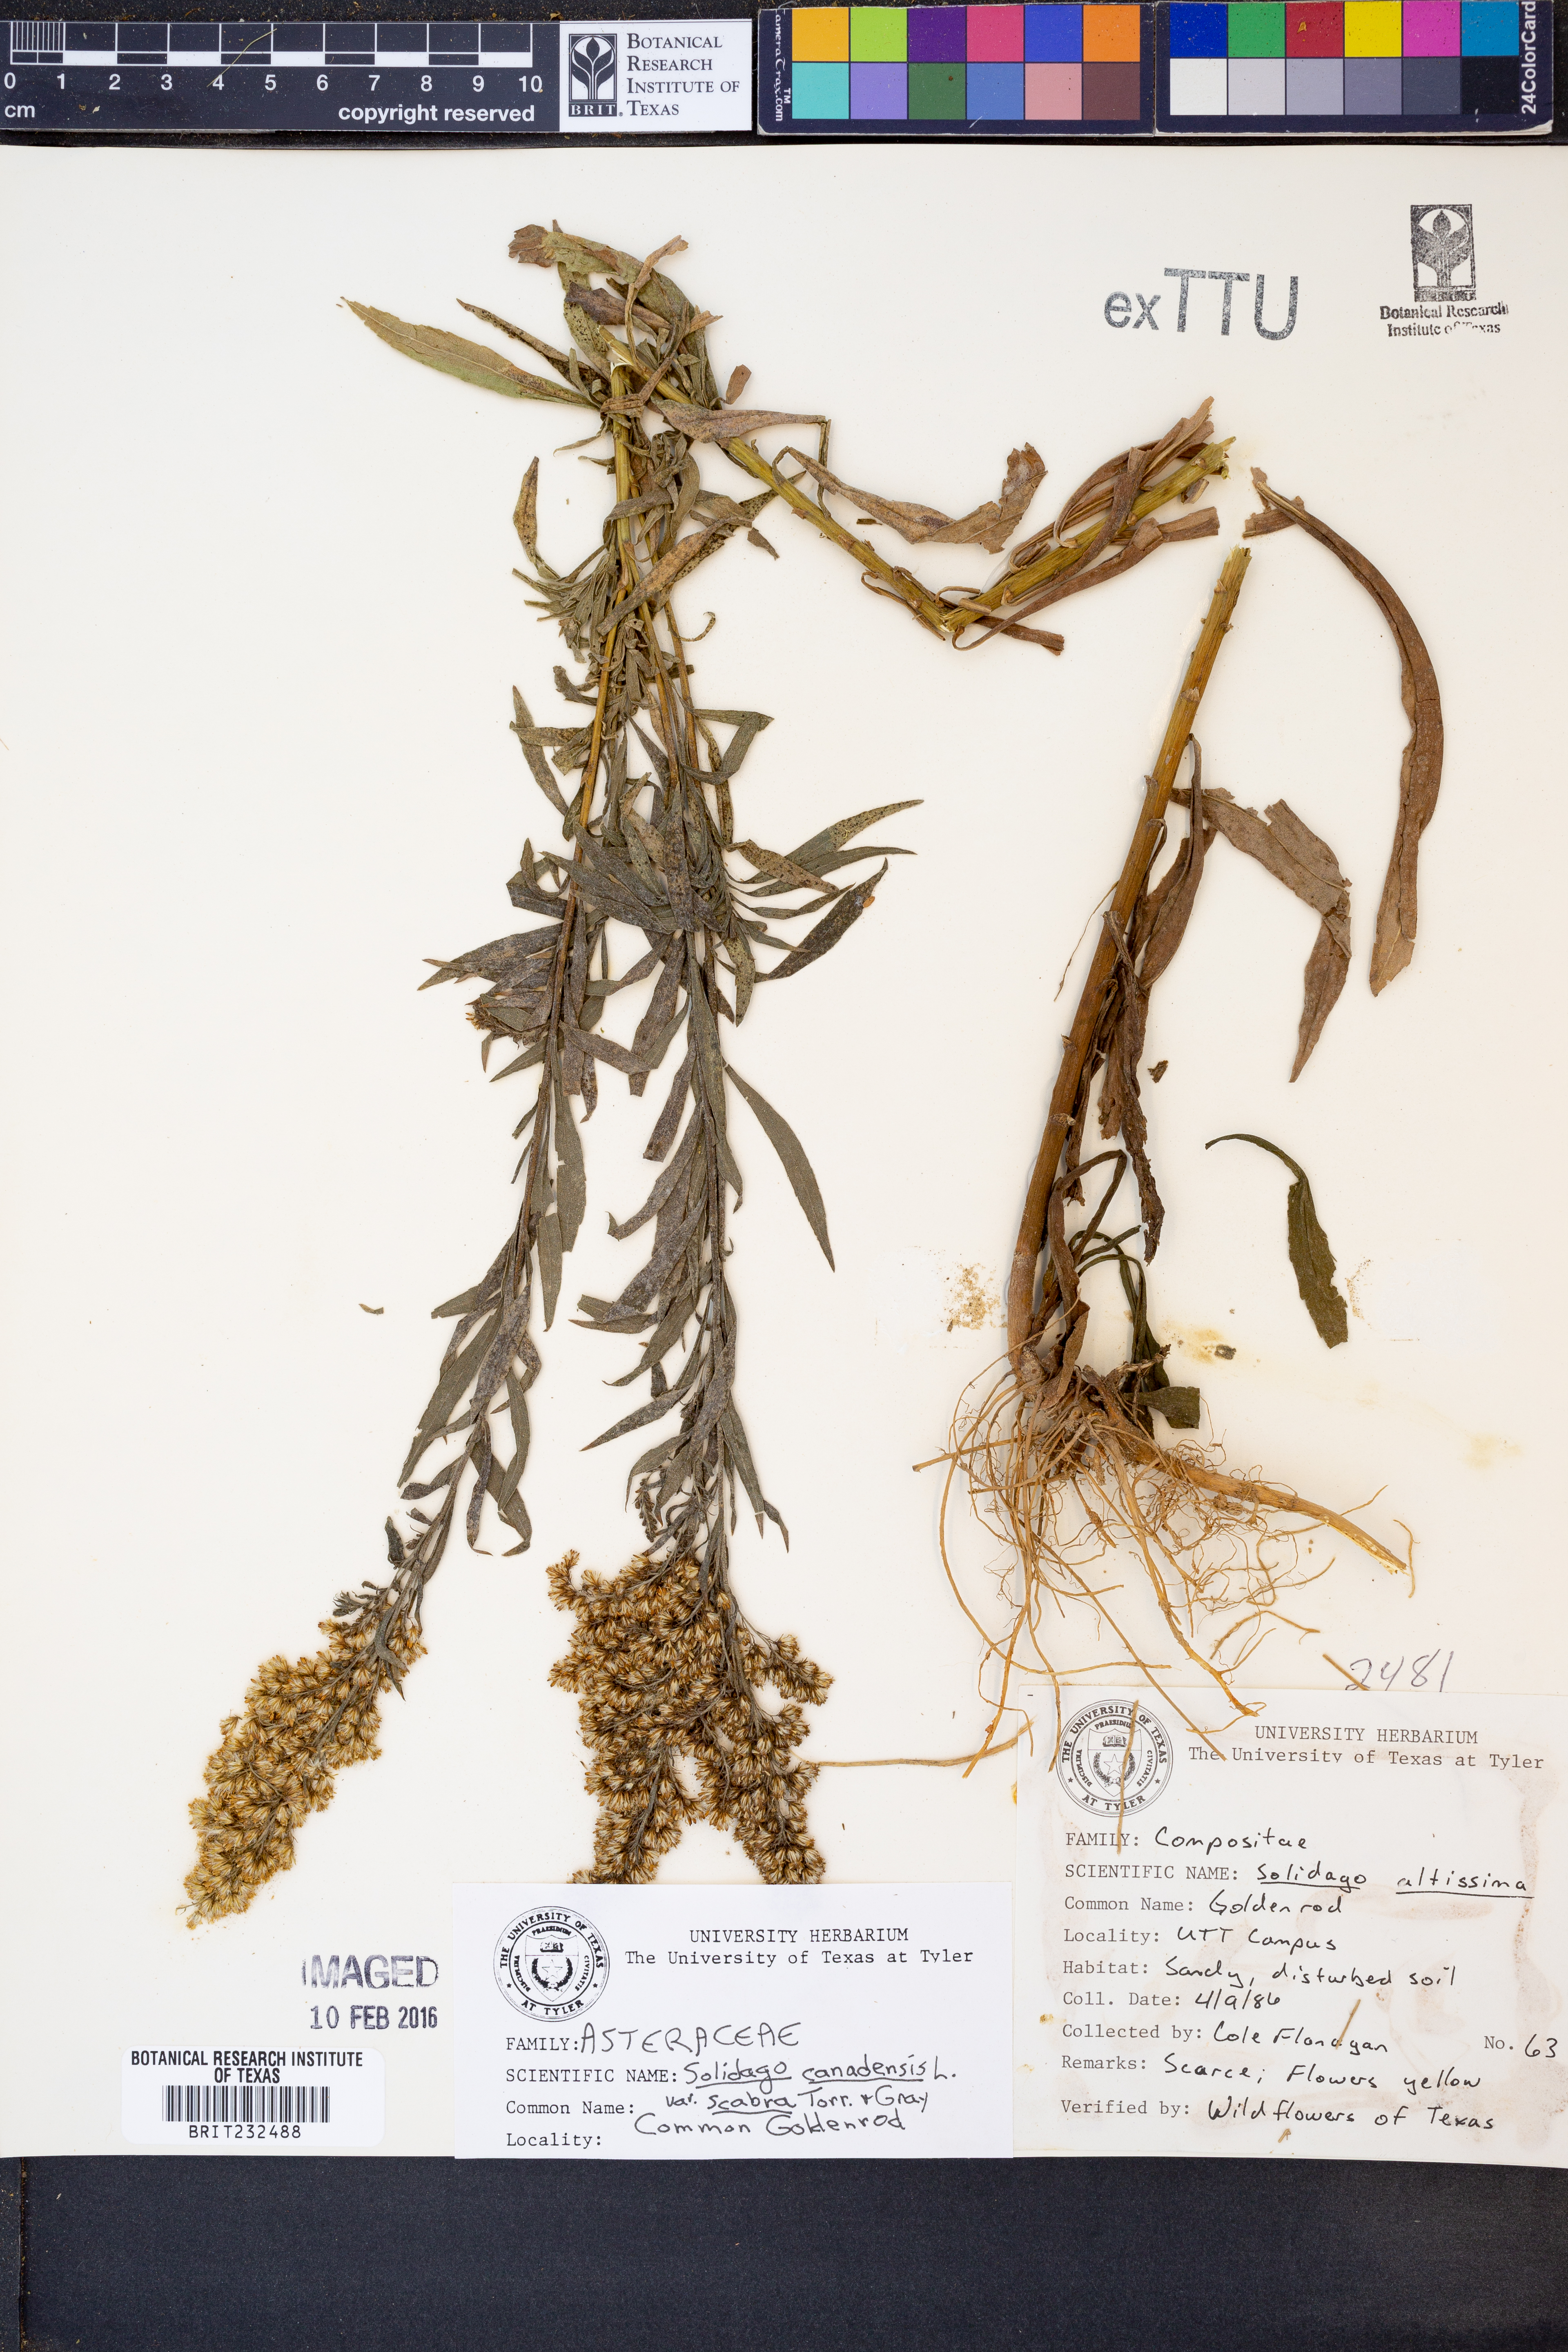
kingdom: Plantae
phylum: Tracheophyta
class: Magnoliopsida
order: Asterales
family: Asteraceae
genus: Solidago
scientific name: Solidago altissima
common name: Late goldenrod
